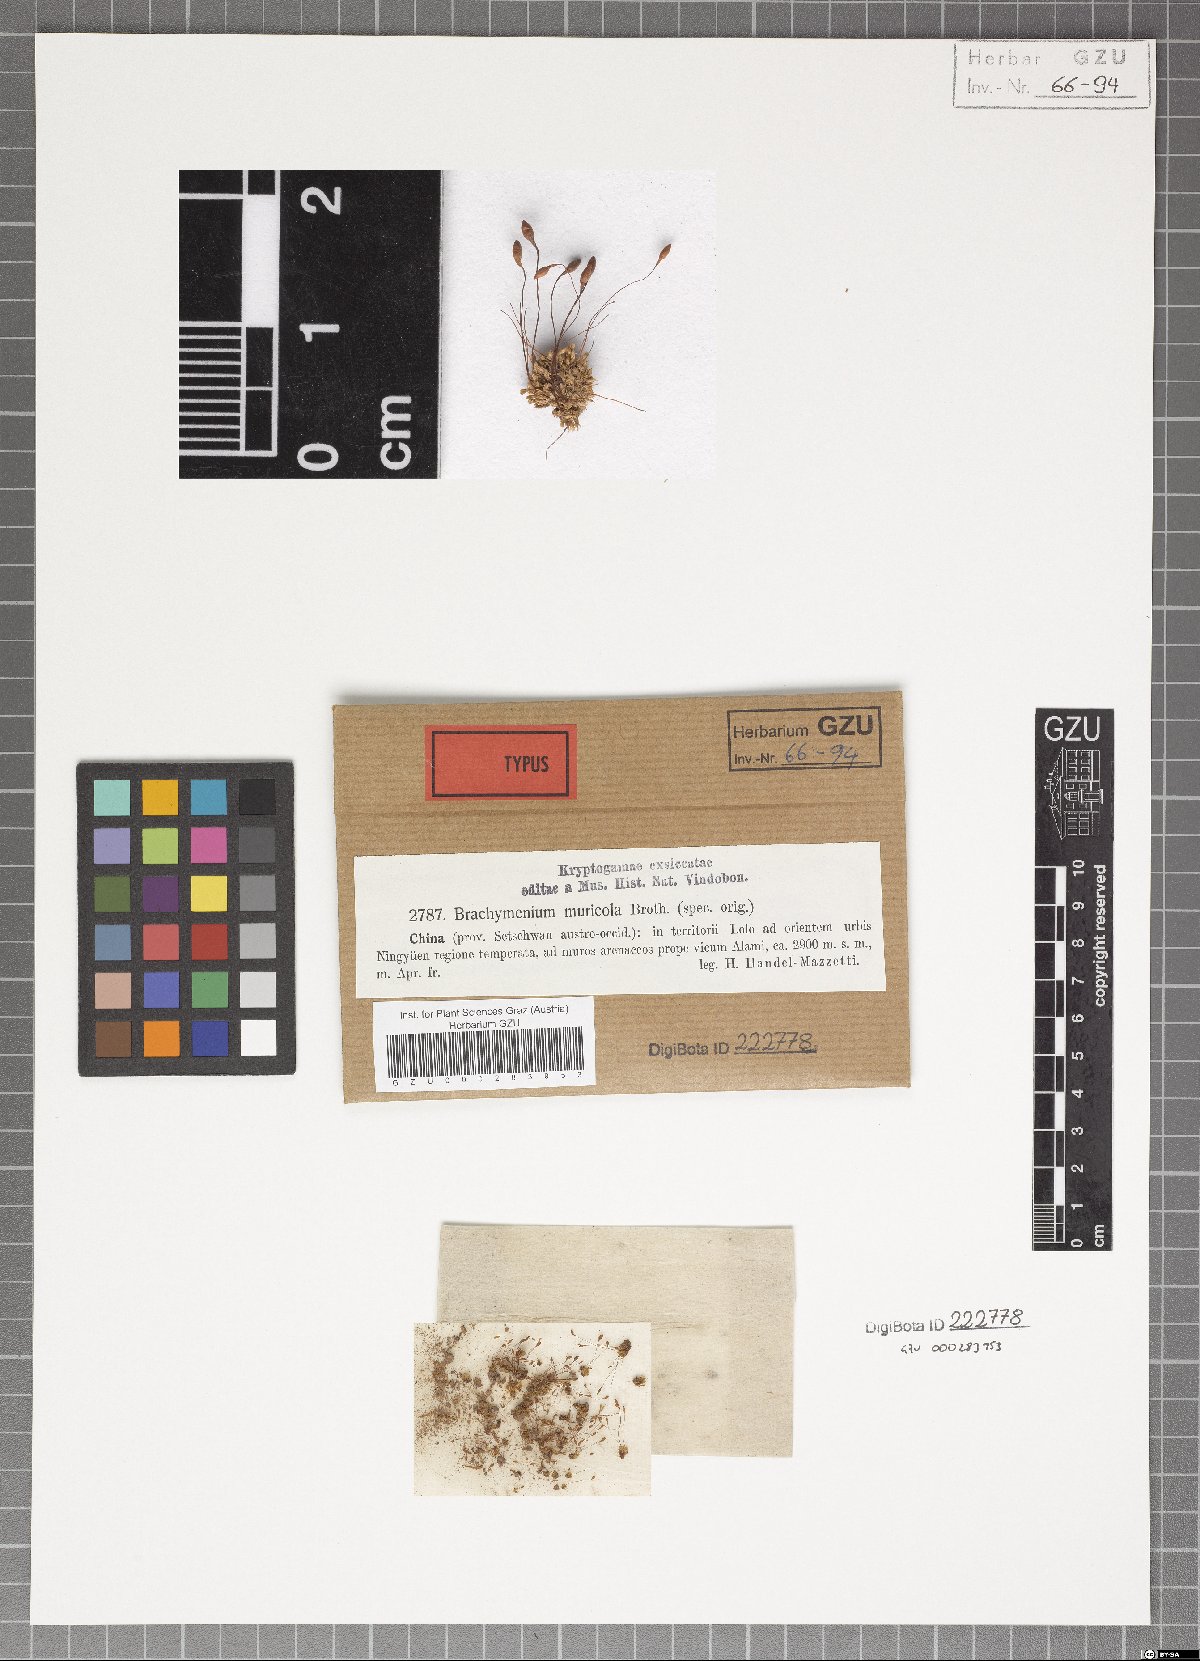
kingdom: Plantae
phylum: Bryophyta
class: Bryopsida
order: Bryales
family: Bryaceae
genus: Brachymenium
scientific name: Brachymenium muricola
